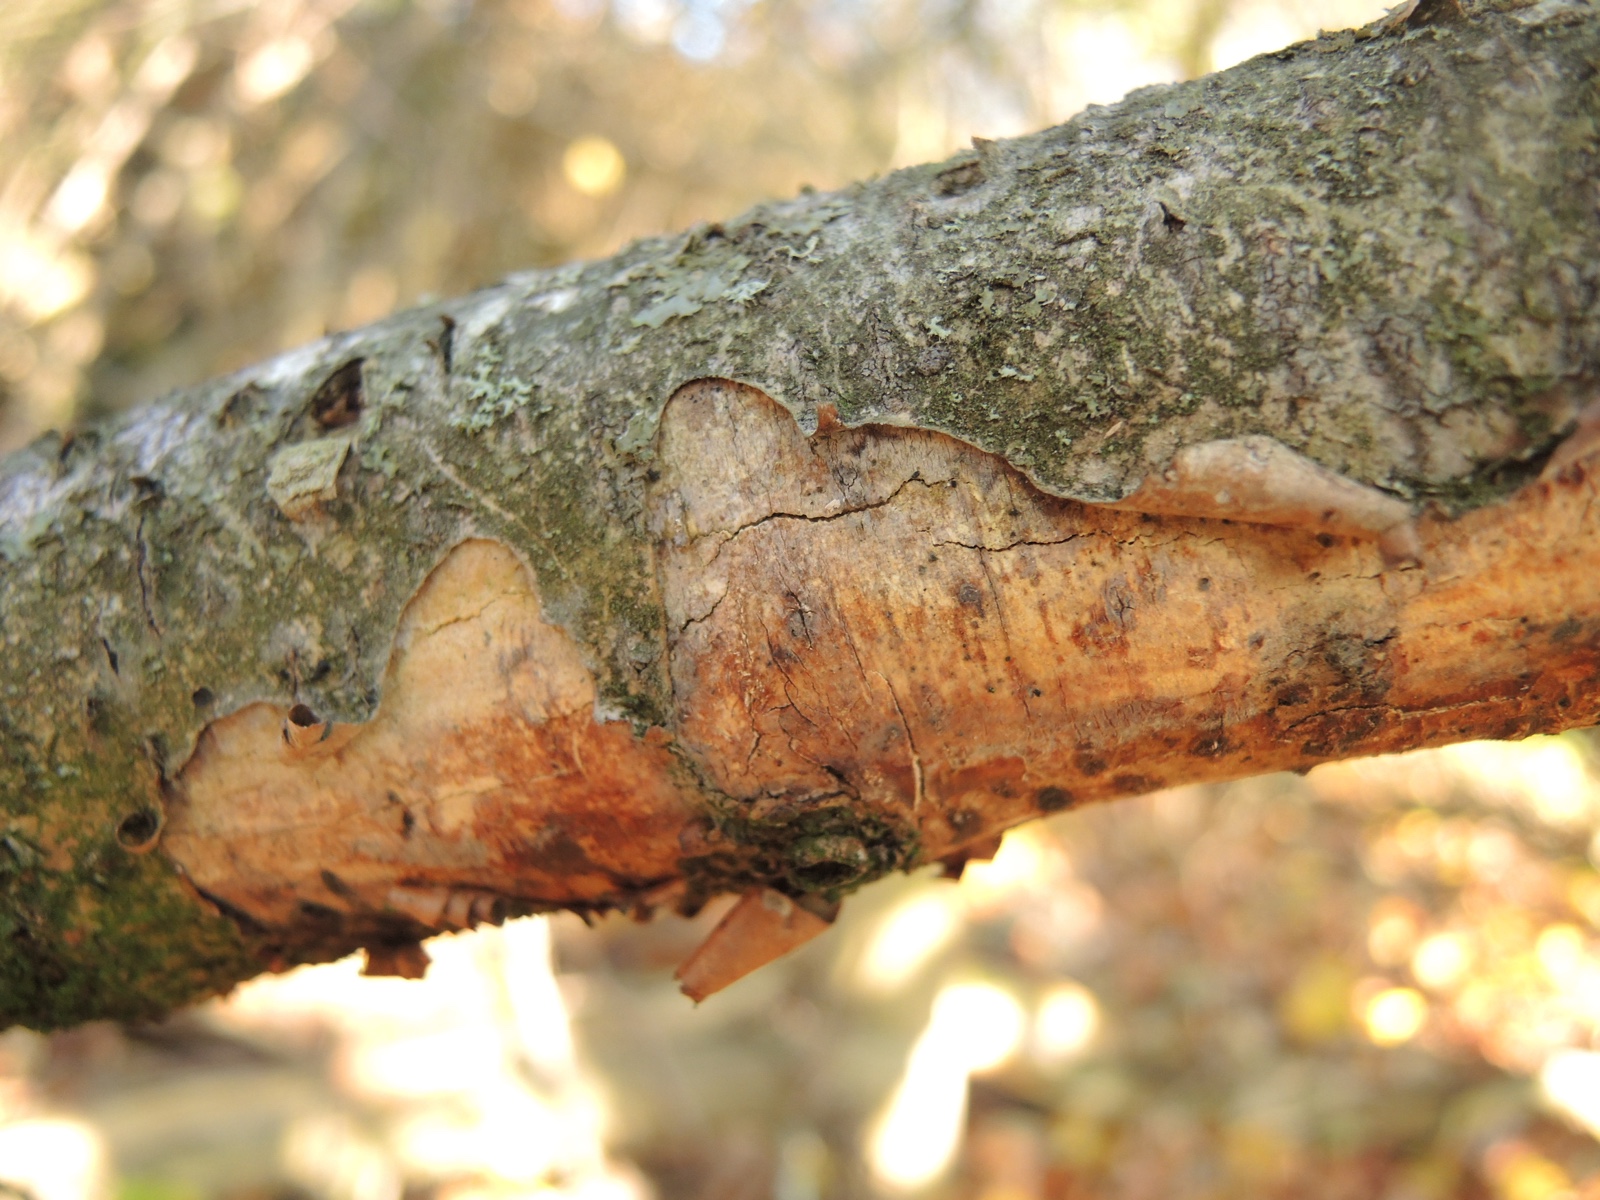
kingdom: Fungi
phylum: Basidiomycota
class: Agaricomycetes
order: Corticiales
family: Vuilleminiaceae
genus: Vuilleminia
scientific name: Vuilleminia coryli
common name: hassel-barksprænger
